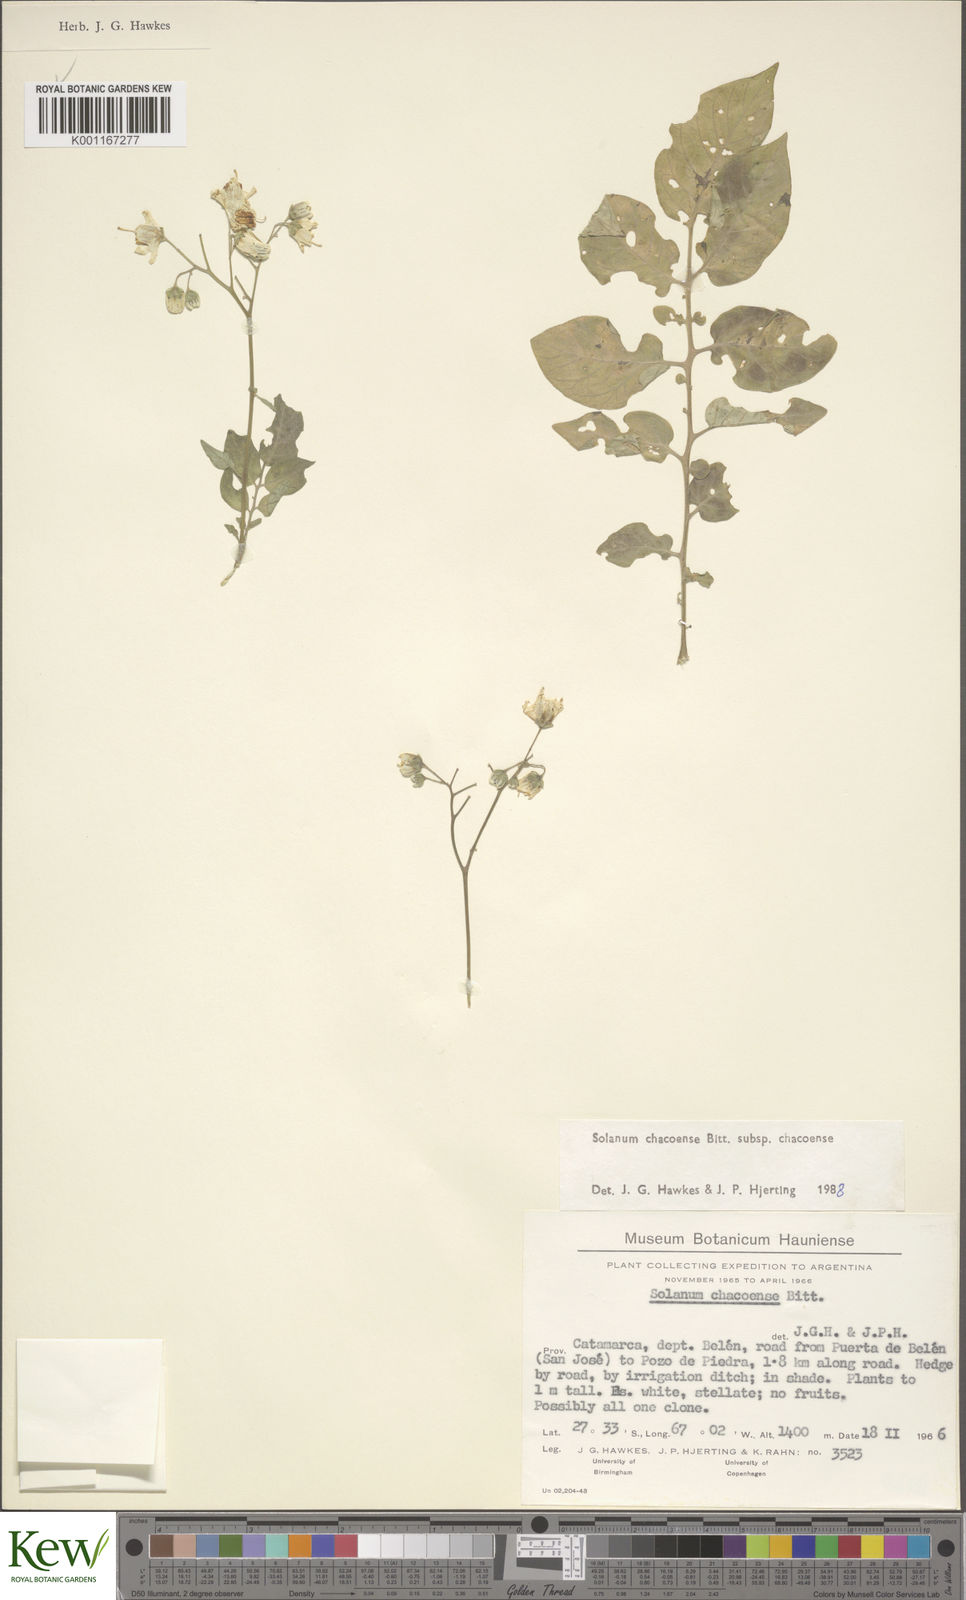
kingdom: Plantae
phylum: Tracheophyta
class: Magnoliopsida
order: Solanales
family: Solanaceae
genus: Solanum
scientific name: Solanum chacoense
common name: Chaco potato
